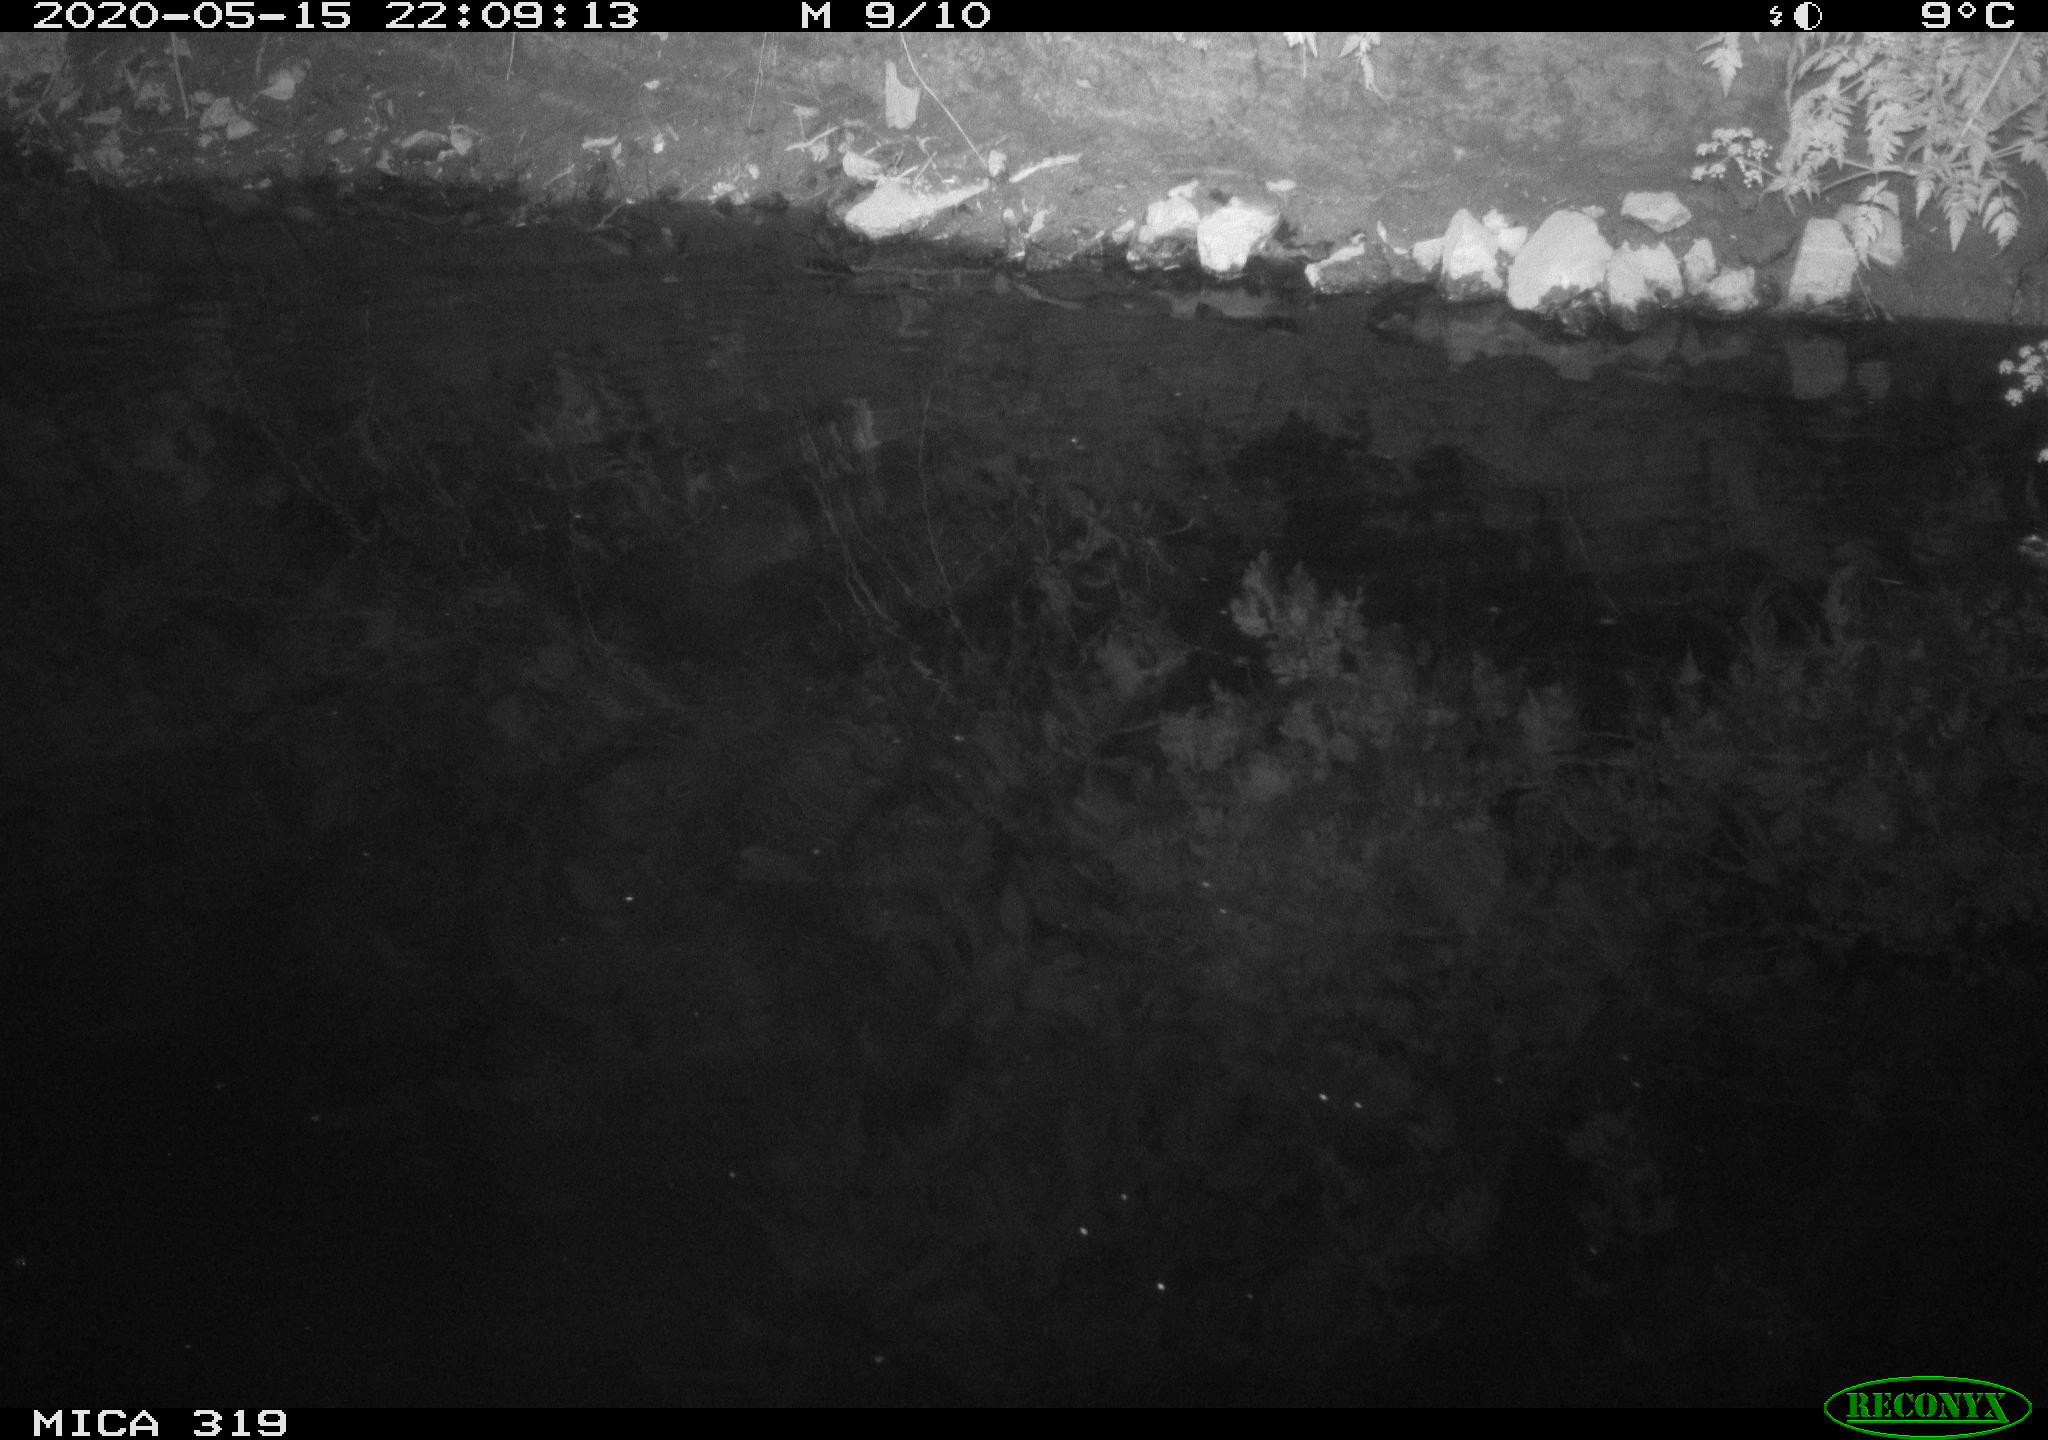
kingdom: Animalia
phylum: Chordata
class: Aves
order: Anseriformes
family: Anatidae
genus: Anas
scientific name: Anas platyrhynchos
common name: Mallard
